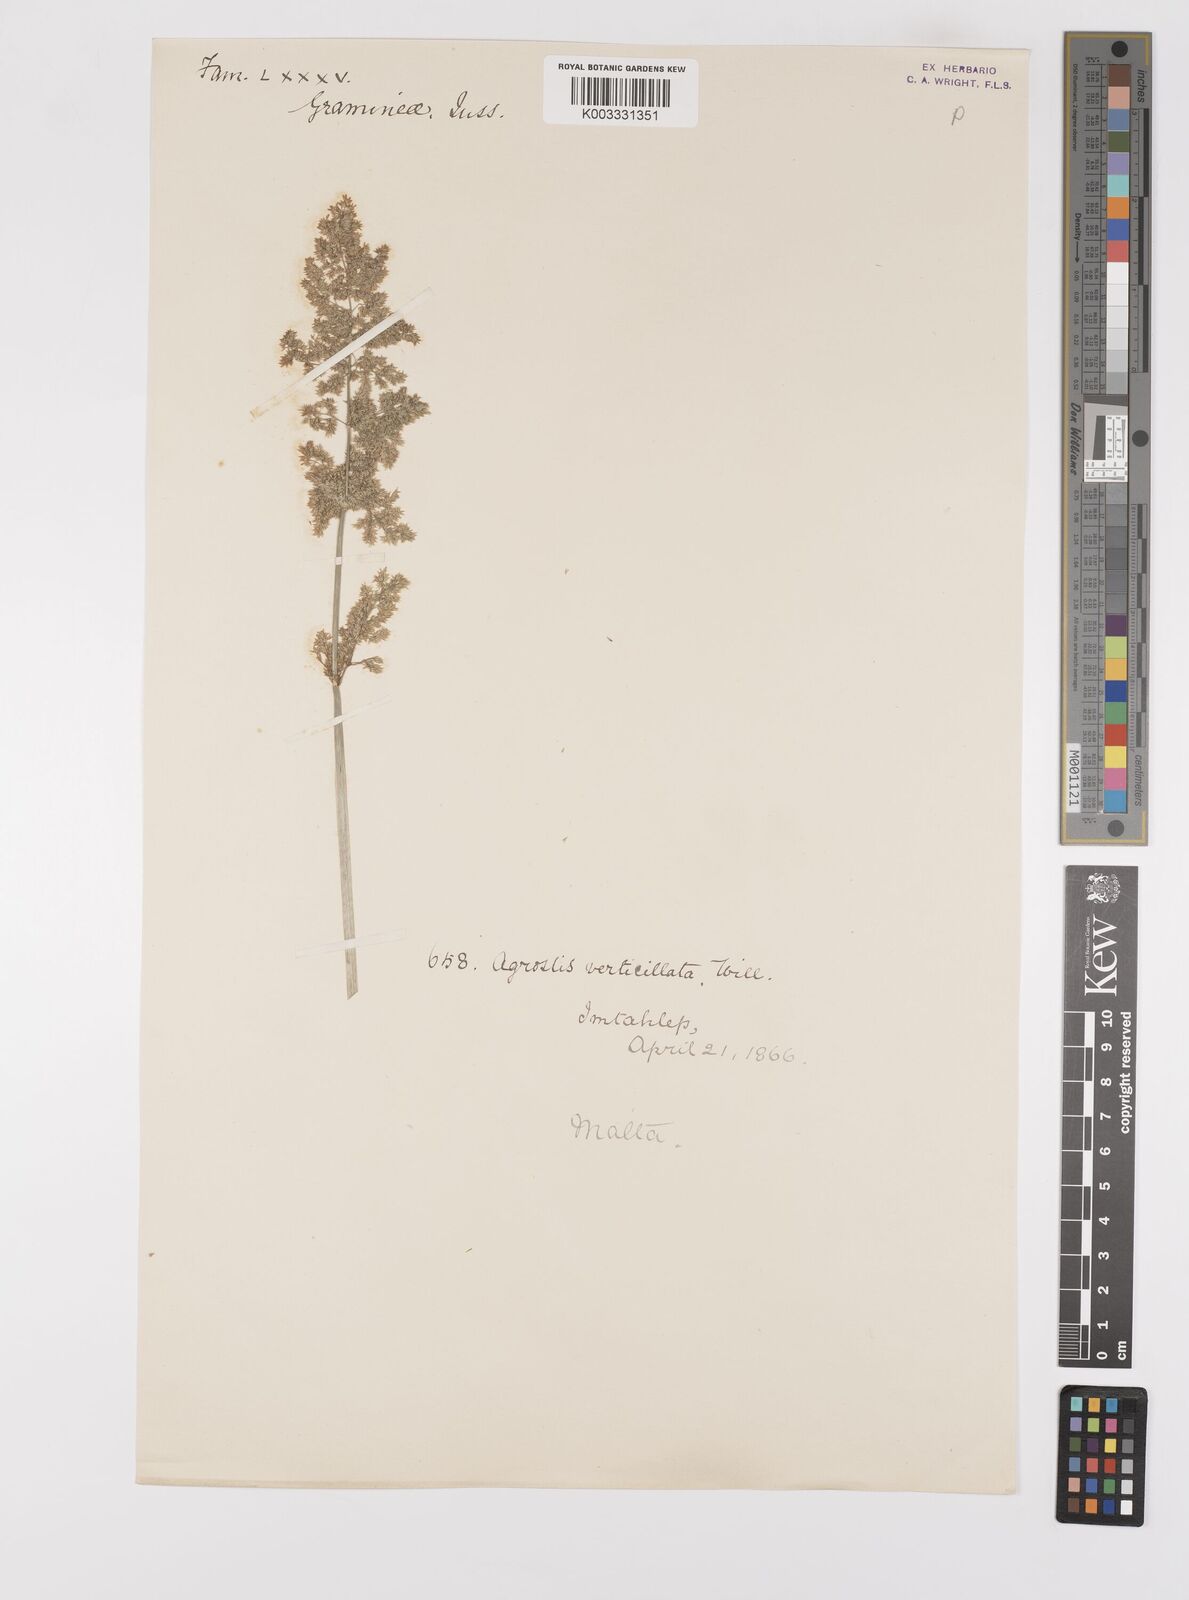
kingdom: Plantae
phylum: Tracheophyta
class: Liliopsida
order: Poales
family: Poaceae
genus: Polypogon
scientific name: Polypogon viridis
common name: Water bent
